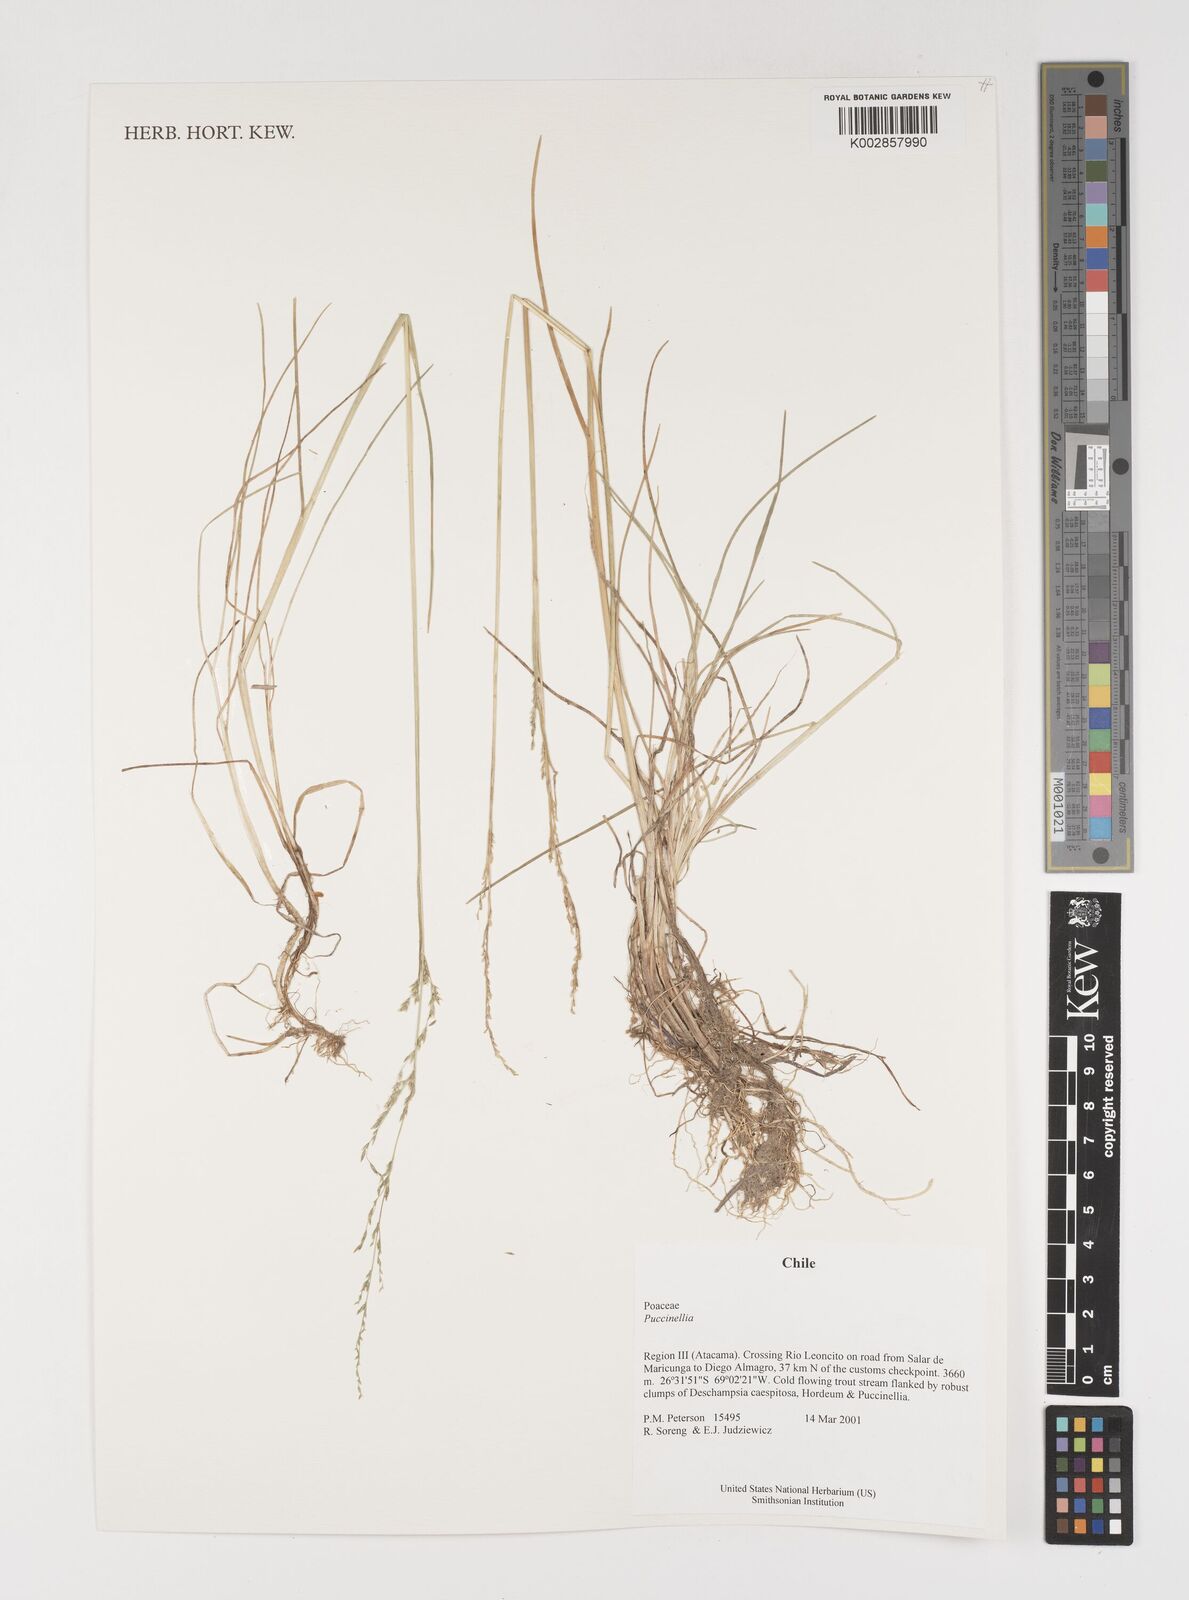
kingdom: Plantae
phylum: Tracheophyta
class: Liliopsida
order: Poales
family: Poaceae
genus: Puccinellia
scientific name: Puccinellia
